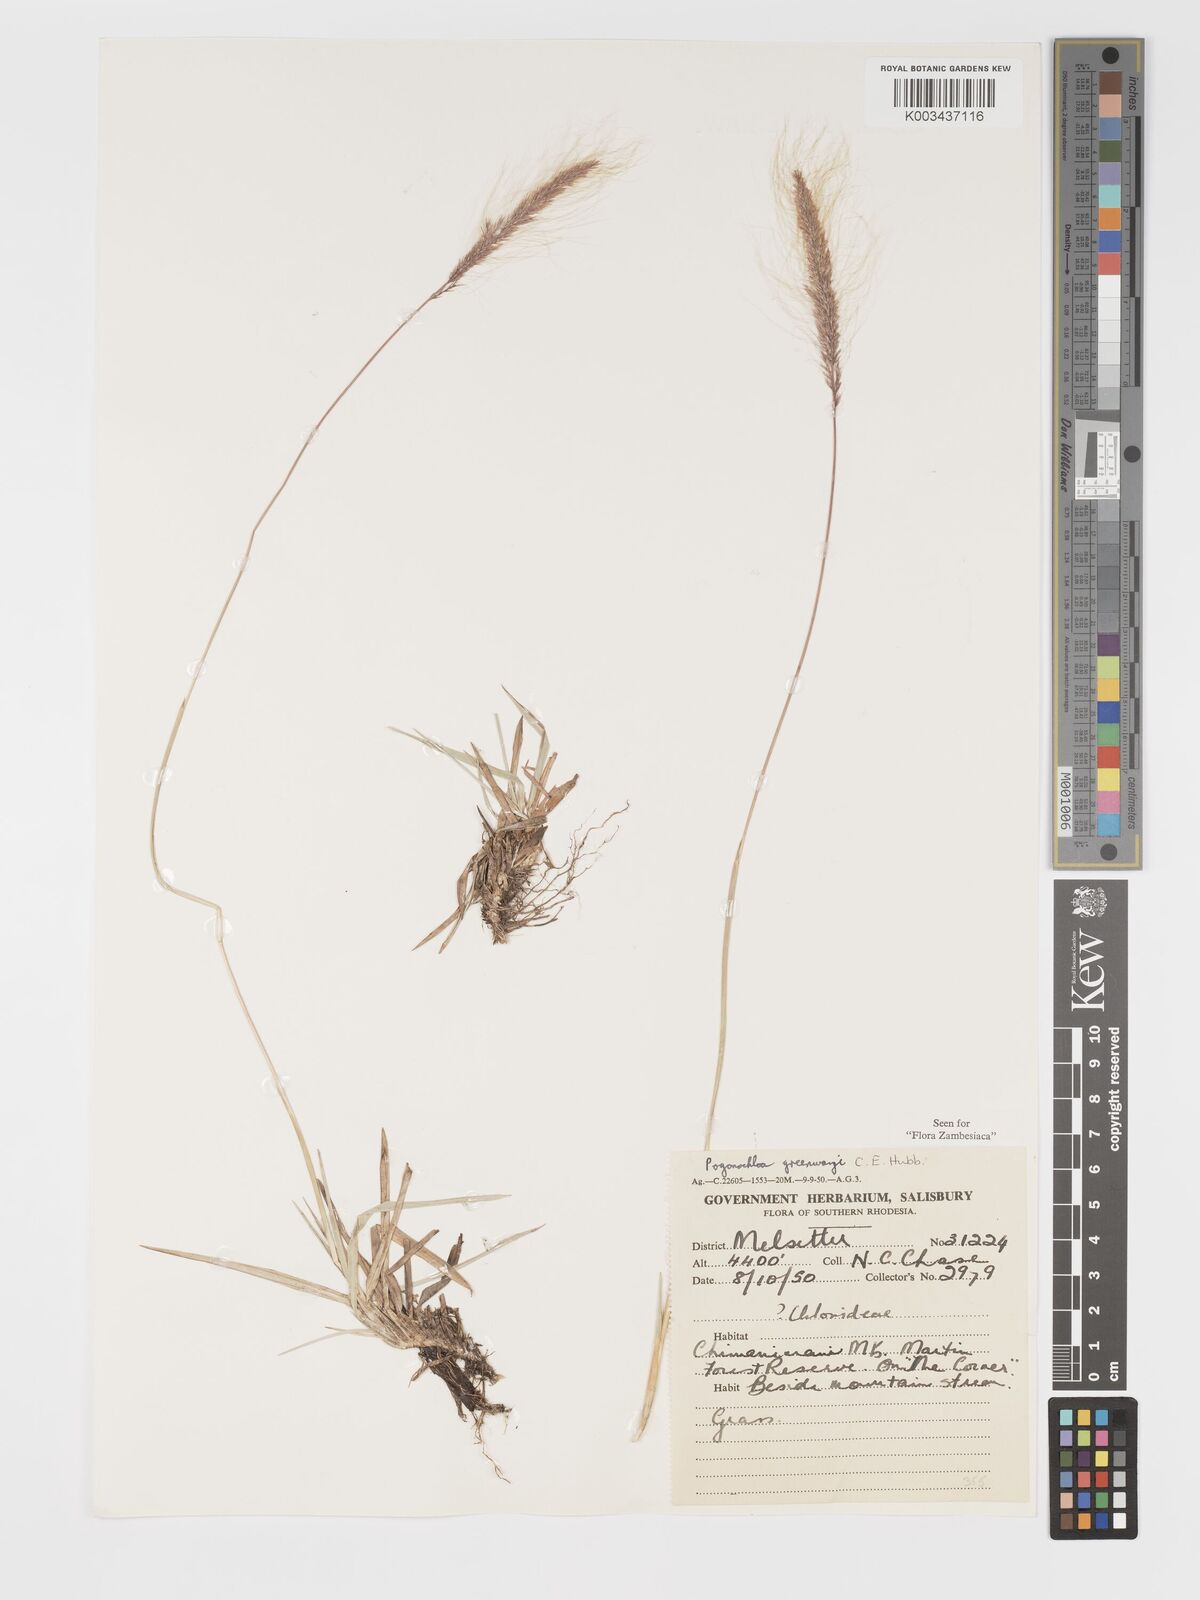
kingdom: Plantae
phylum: Tracheophyta
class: Liliopsida
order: Poales
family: Poaceae
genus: Pogonochloa
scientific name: Pogonochloa greenwayi
